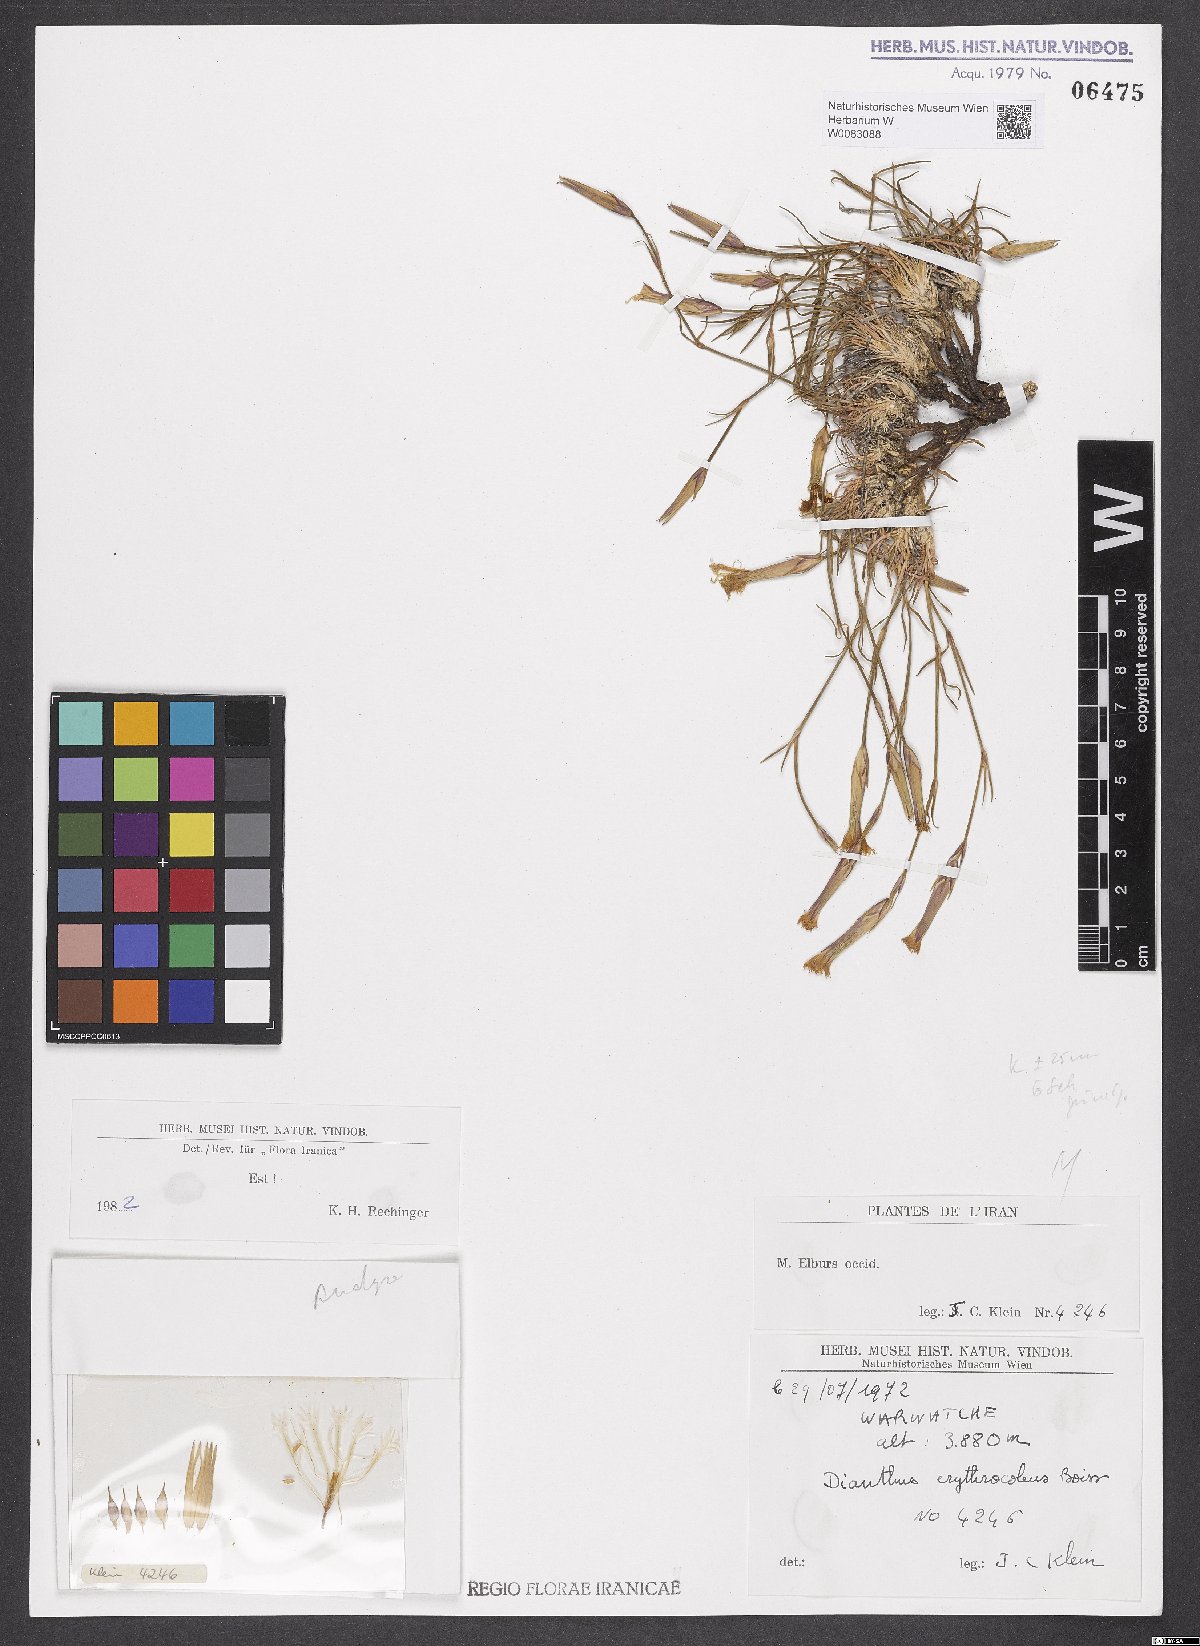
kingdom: Plantae
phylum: Tracheophyta
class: Magnoliopsida
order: Caryophyllales
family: Caryophyllaceae
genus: Dianthus
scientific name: Dianthus erythrocoleus
